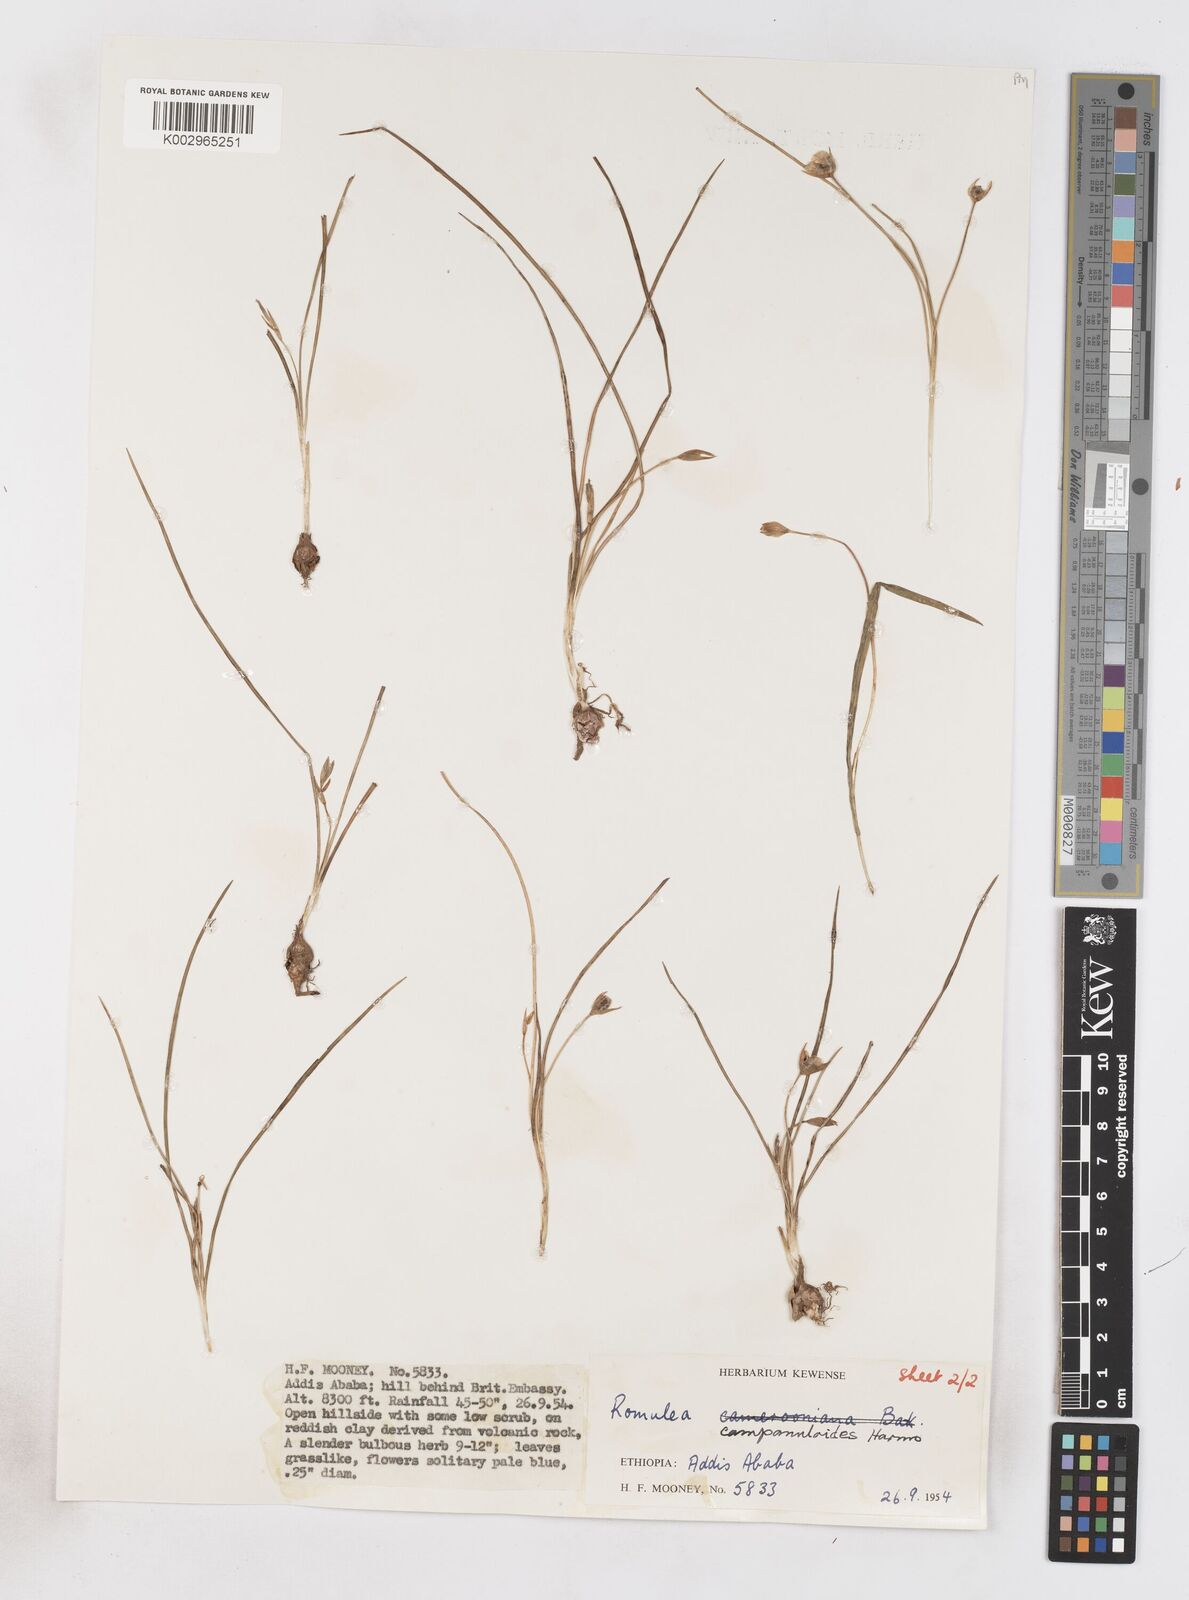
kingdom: Plantae
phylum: Tracheophyta
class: Liliopsida
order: Asparagales
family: Iridaceae
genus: Romulea
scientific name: Romulea fischeri
